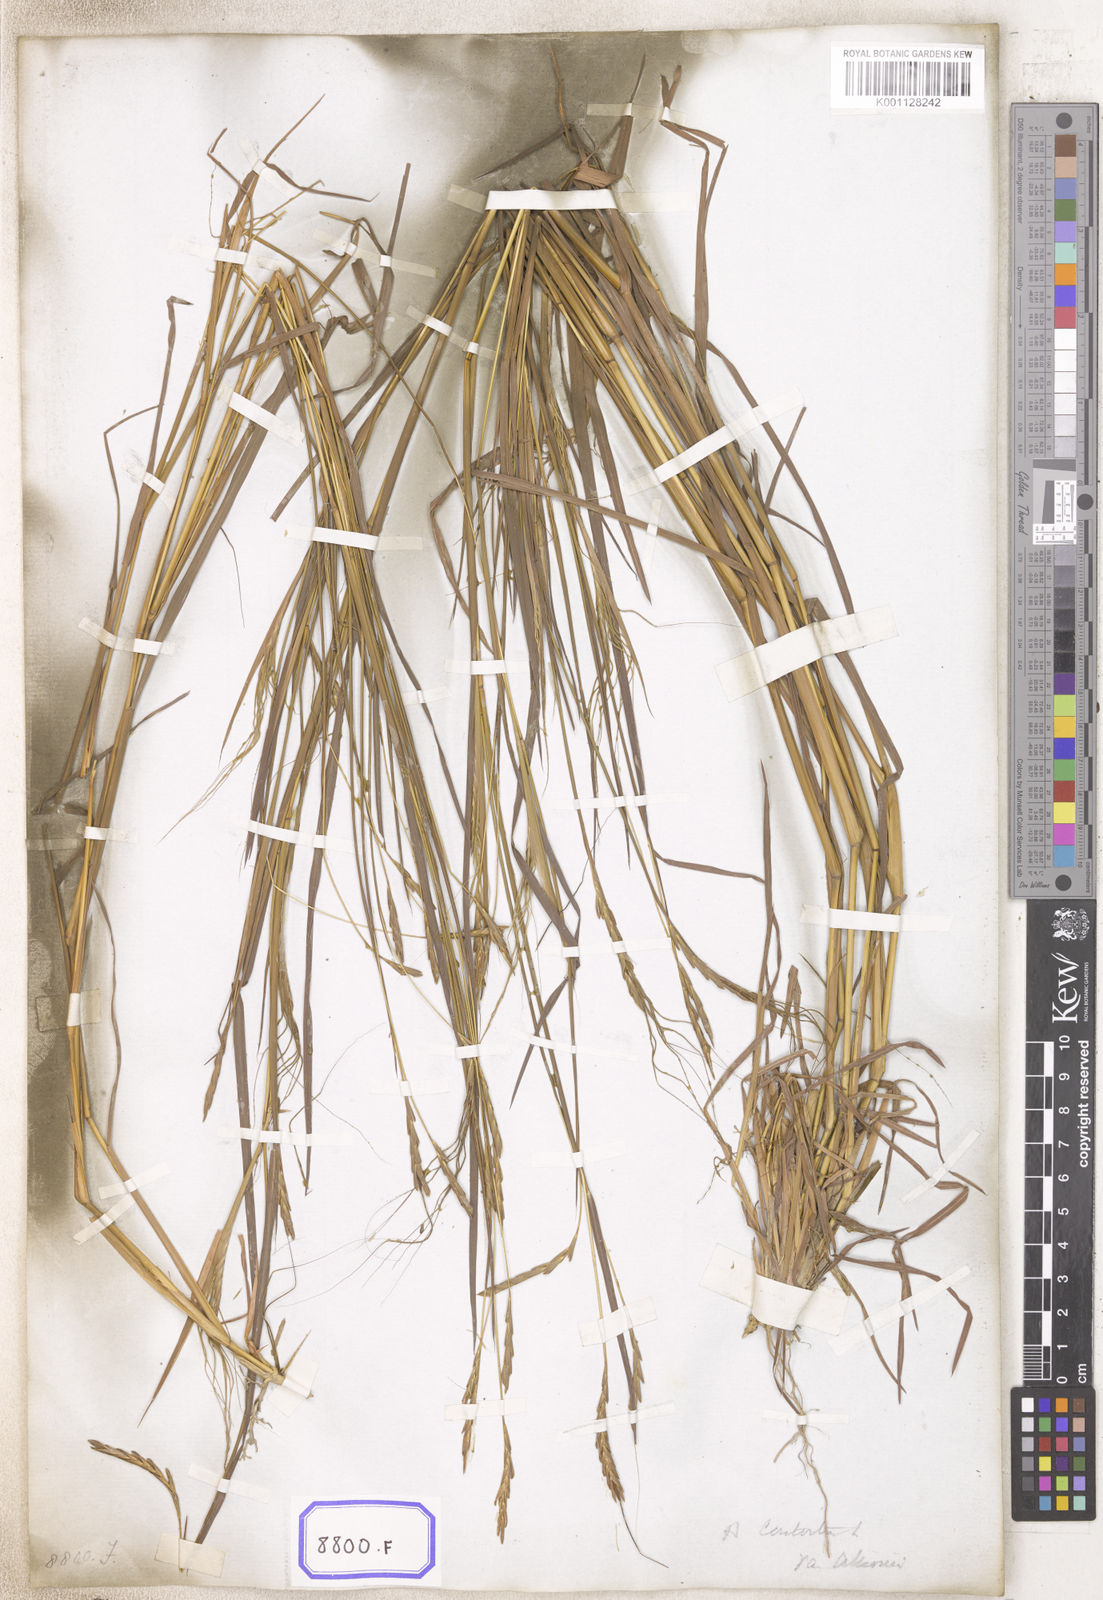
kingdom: Plantae
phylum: Tracheophyta
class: Liliopsida
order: Poales
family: Poaceae
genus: Heteropogon
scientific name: Heteropogon contortus
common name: Tanglehead
